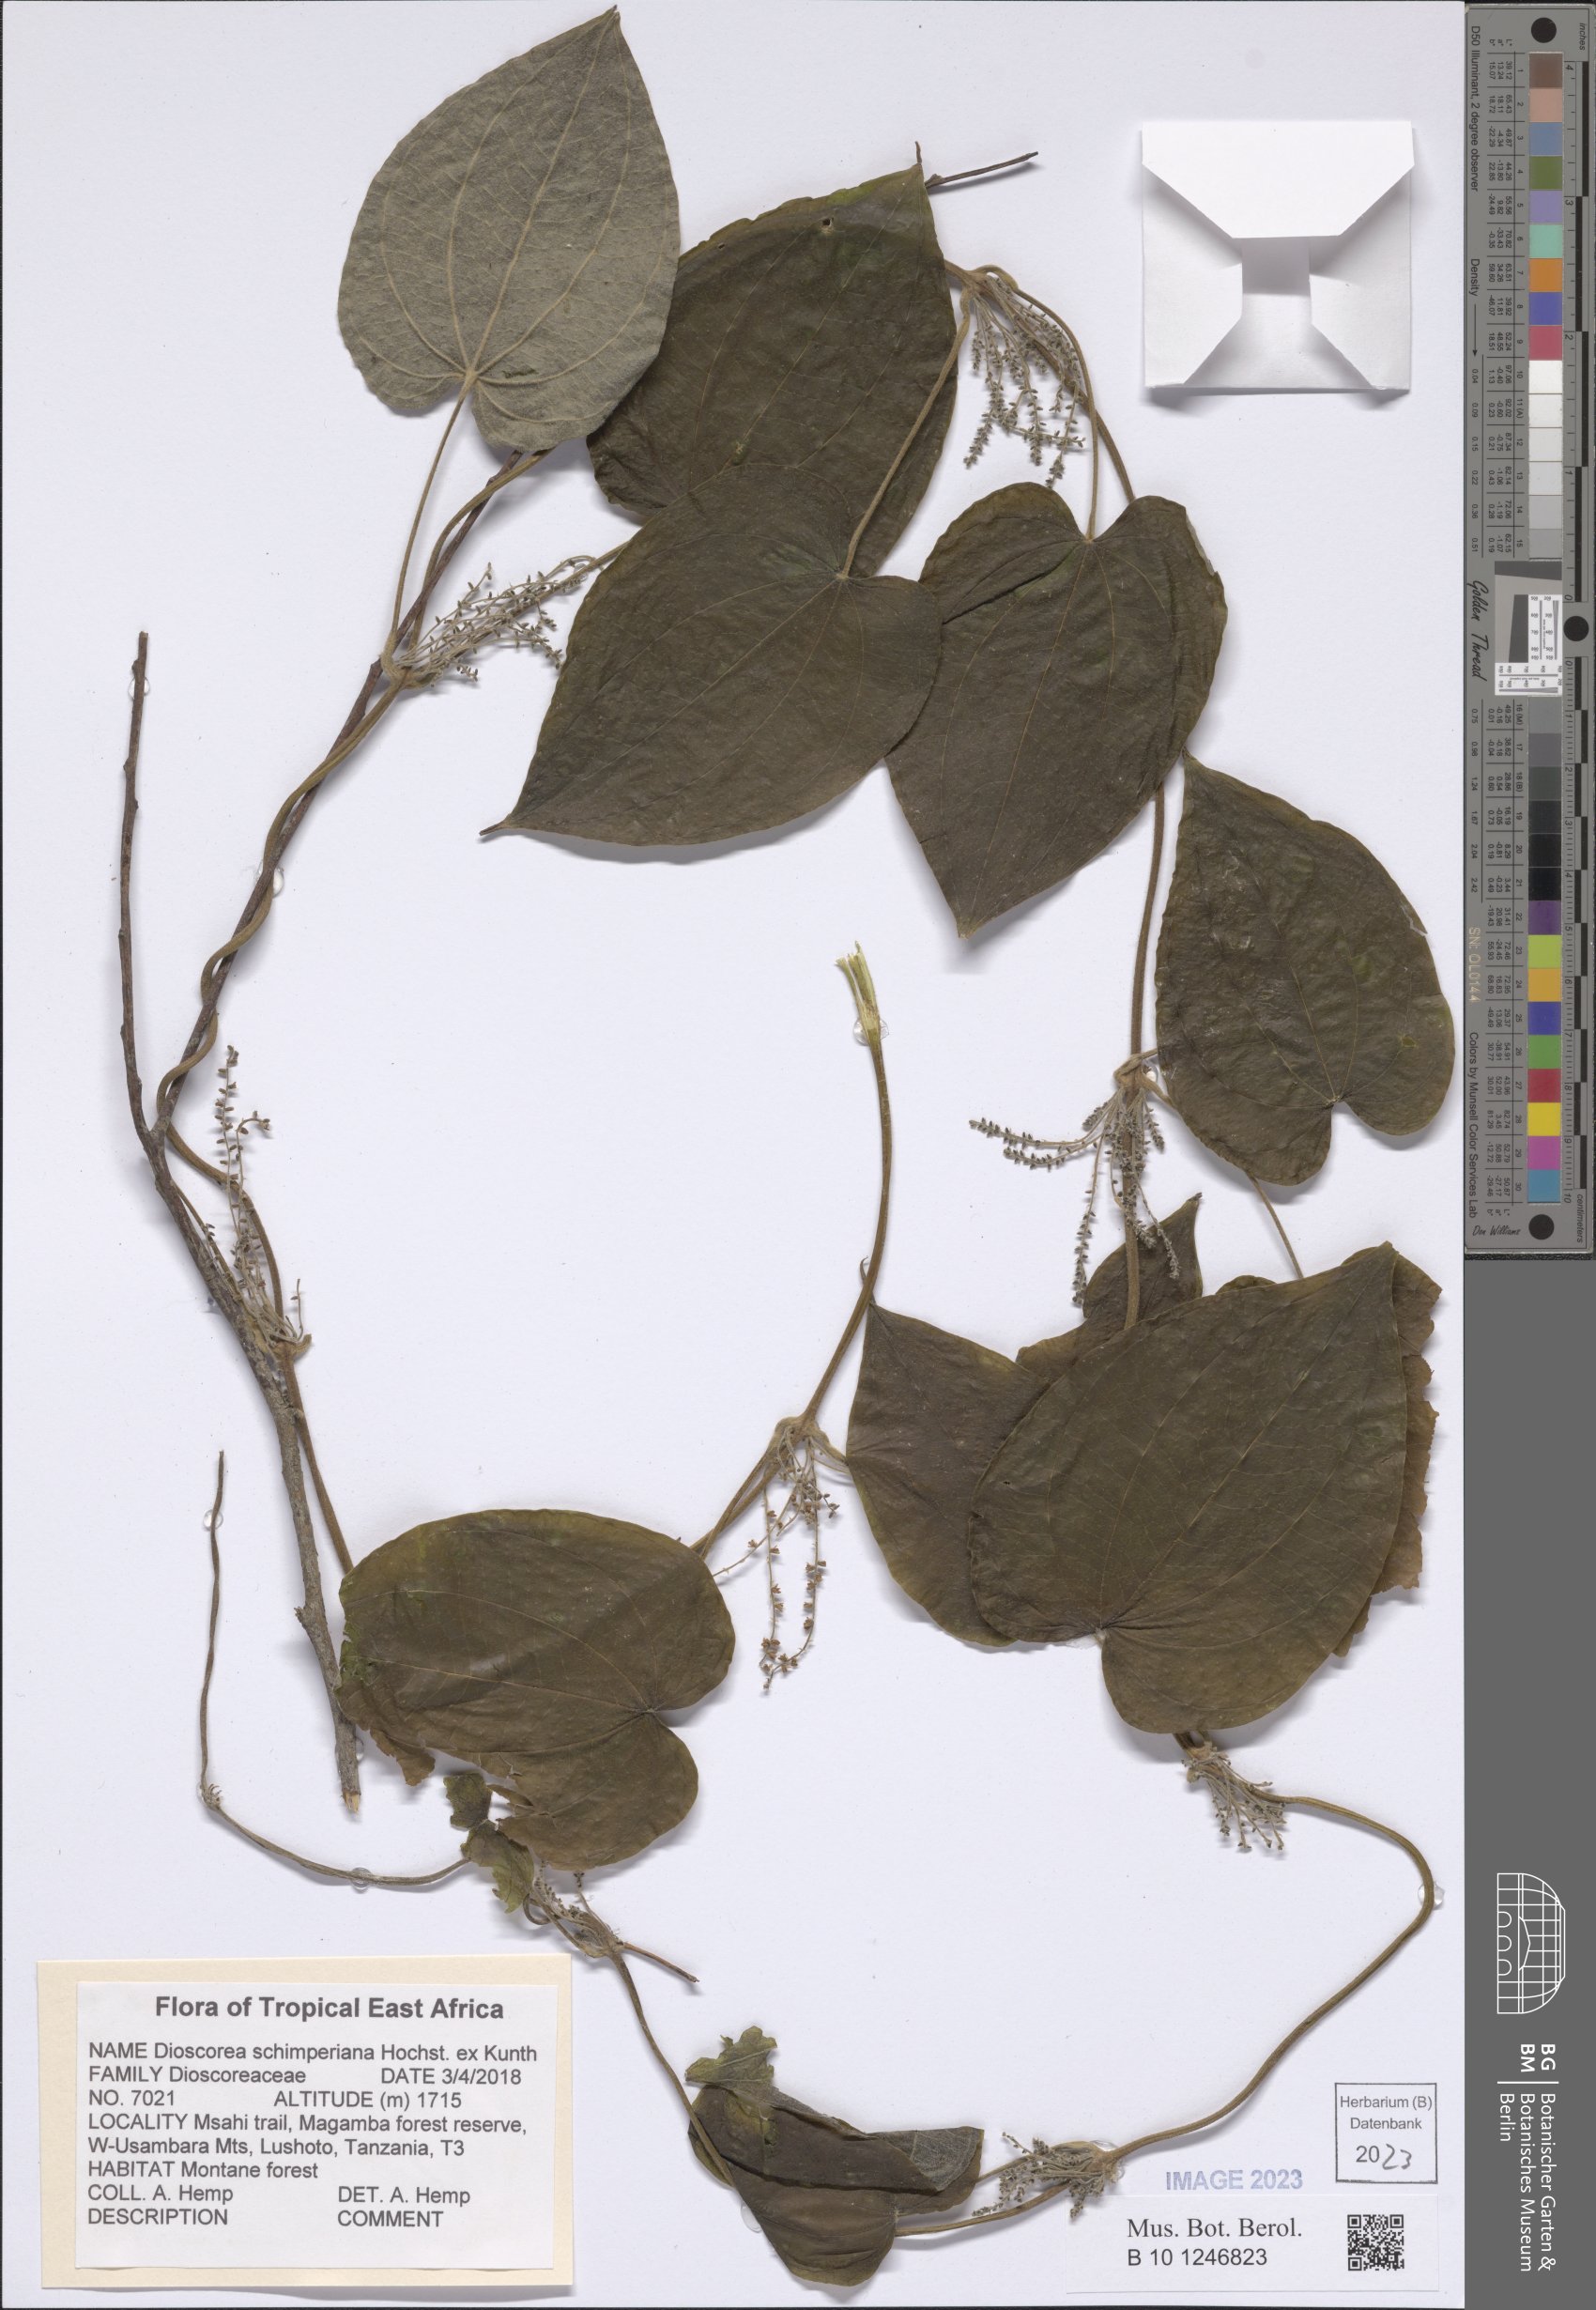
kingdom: Plantae
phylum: Tracheophyta
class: Liliopsida
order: Dioscoreales
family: Dioscoreaceae
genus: Dioscorea
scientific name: Dioscorea schimperiana
